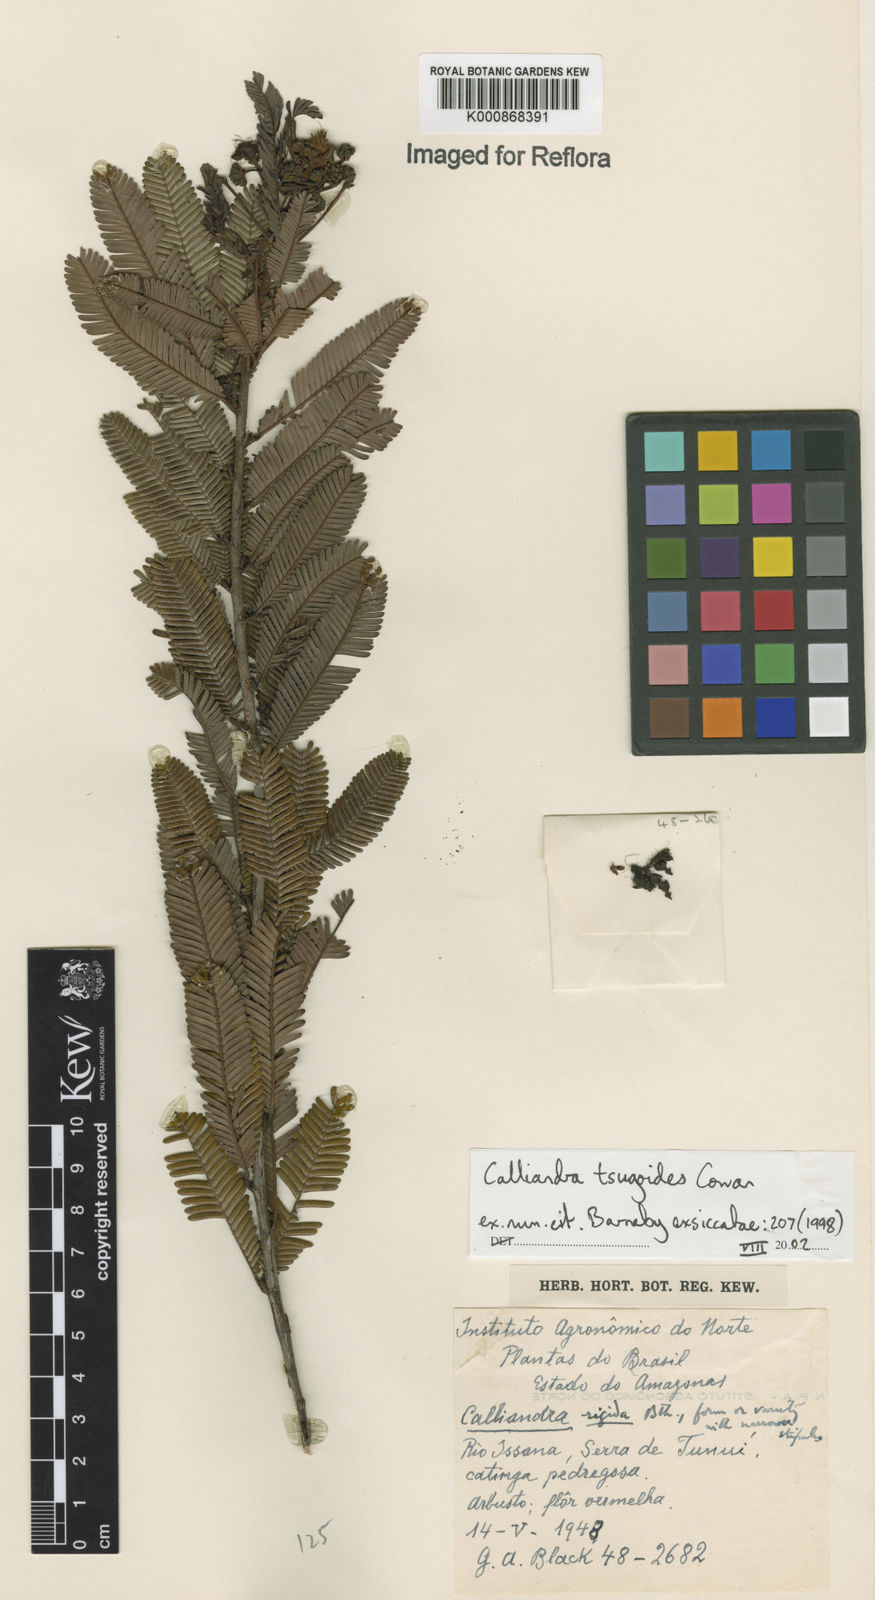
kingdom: Plantae
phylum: Tracheophyta
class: Magnoliopsida
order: Fabales
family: Fabaceae
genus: Calliandra
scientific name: Calliandra tsugoides
